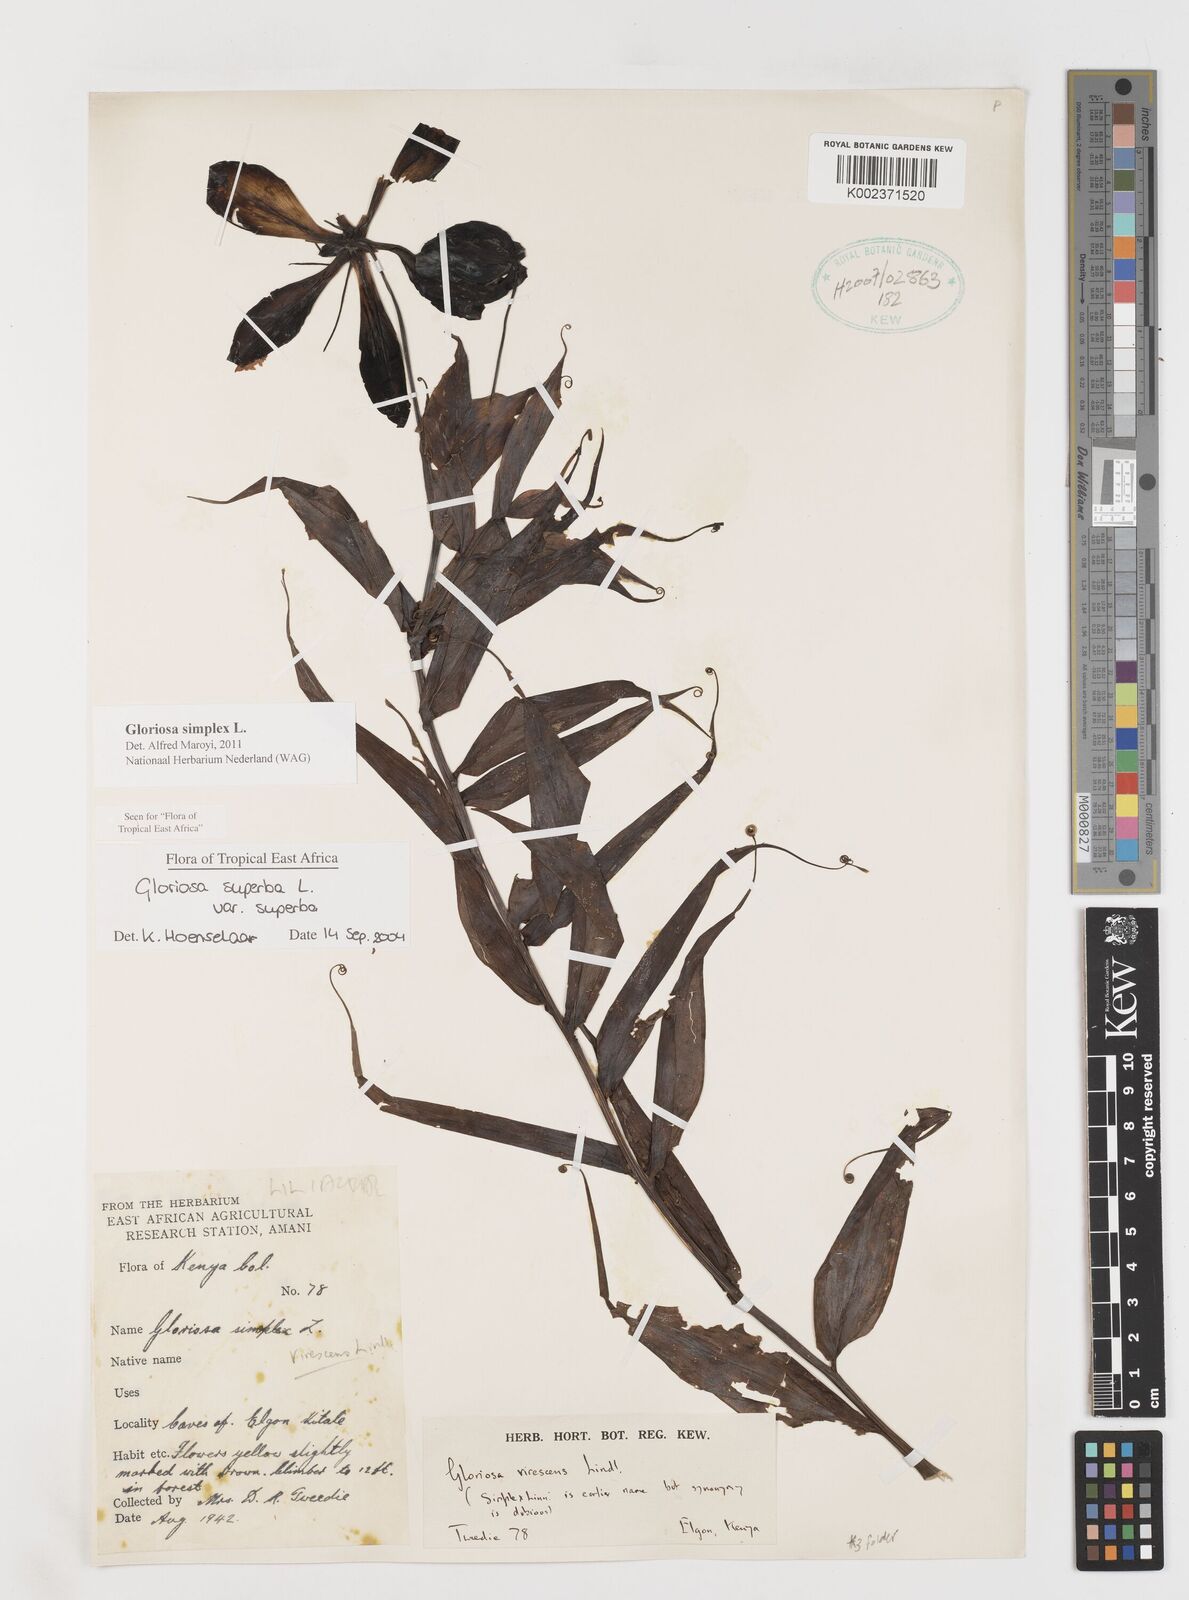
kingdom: Plantae
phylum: Tracheophyta
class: Liliopsida
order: Liliales
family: Colchicaceae
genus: Gloriosa
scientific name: Gloriosa simplex
